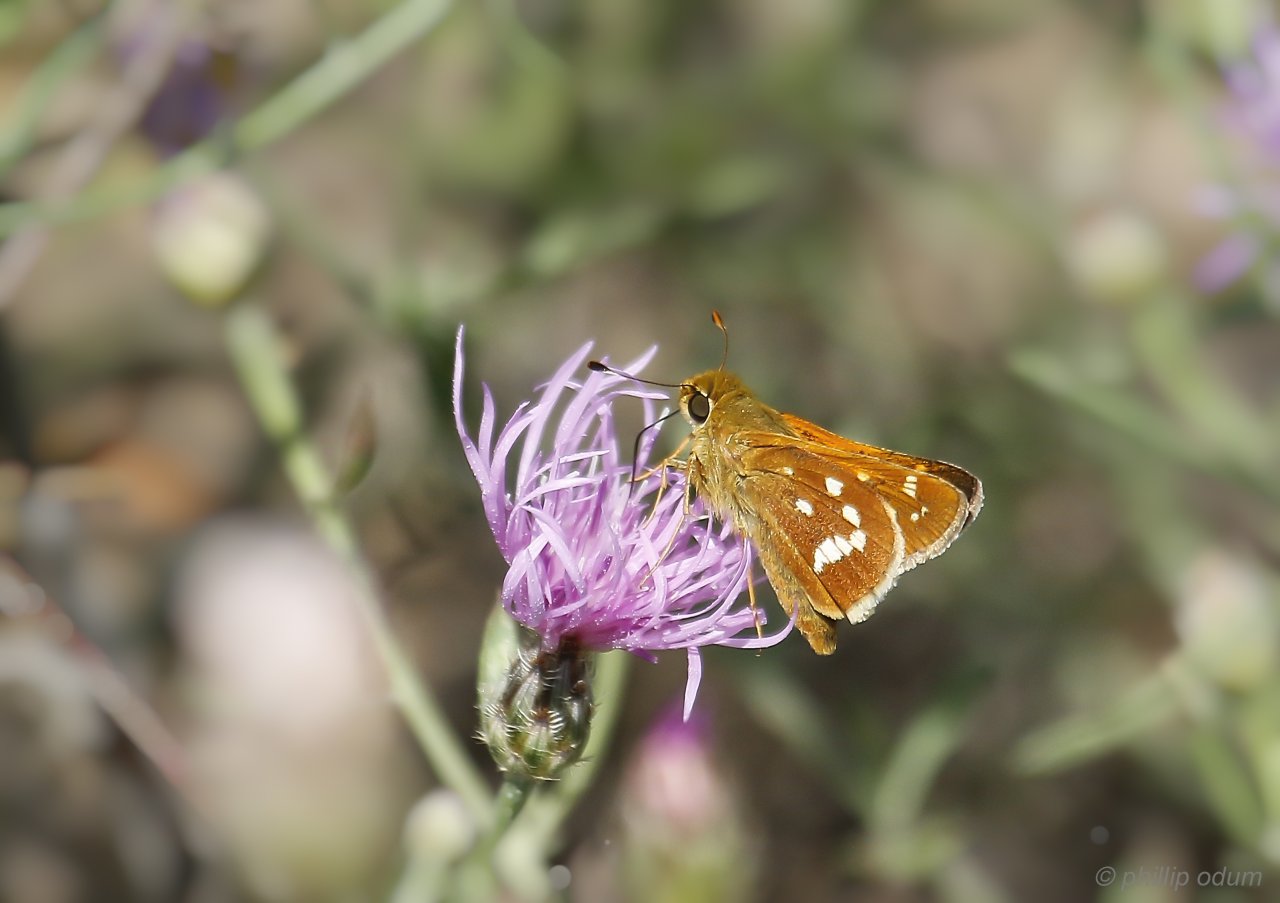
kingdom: Animalia
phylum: Arthropoda
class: Insecta
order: Lepidoptera
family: Hesperiidae
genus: Hesperia
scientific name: Hesperia leonardus
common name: Leonard's Skipper
